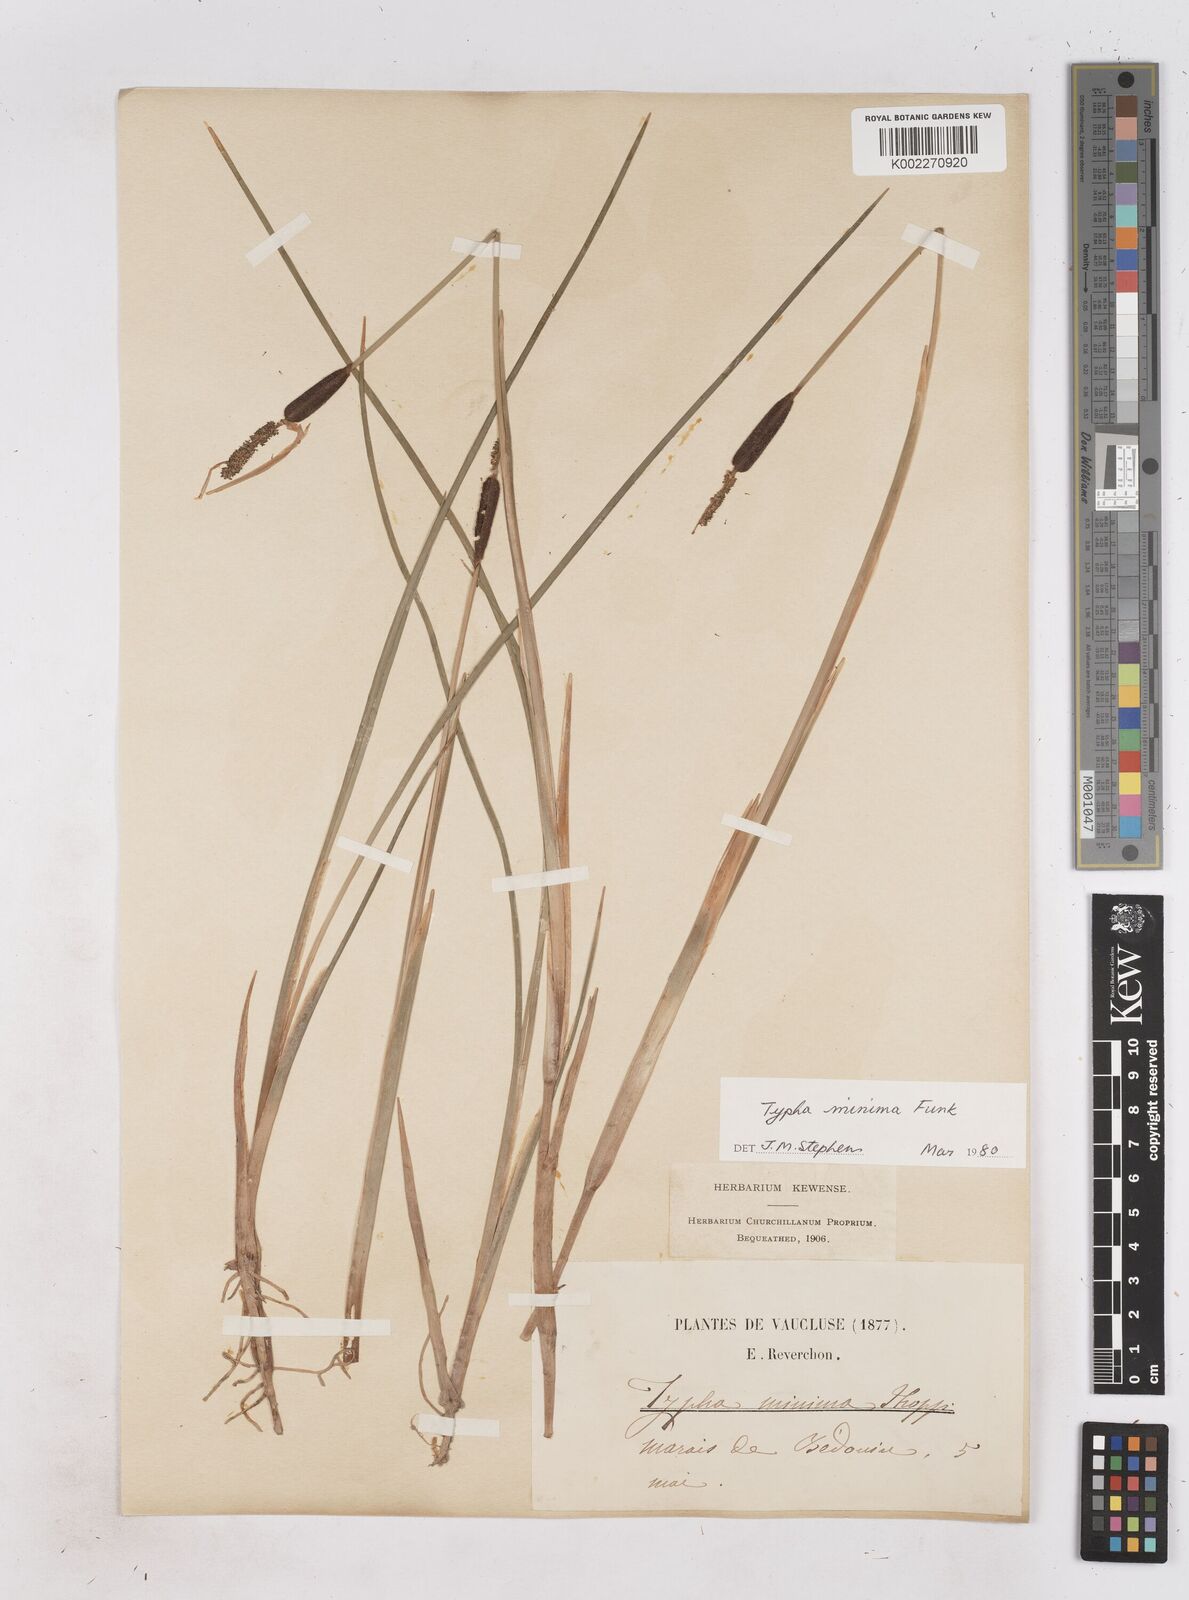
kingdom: Plantae
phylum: Tracheophyta
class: Liliopsida
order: Poales
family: Typhaceae
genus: Typha
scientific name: Typha
